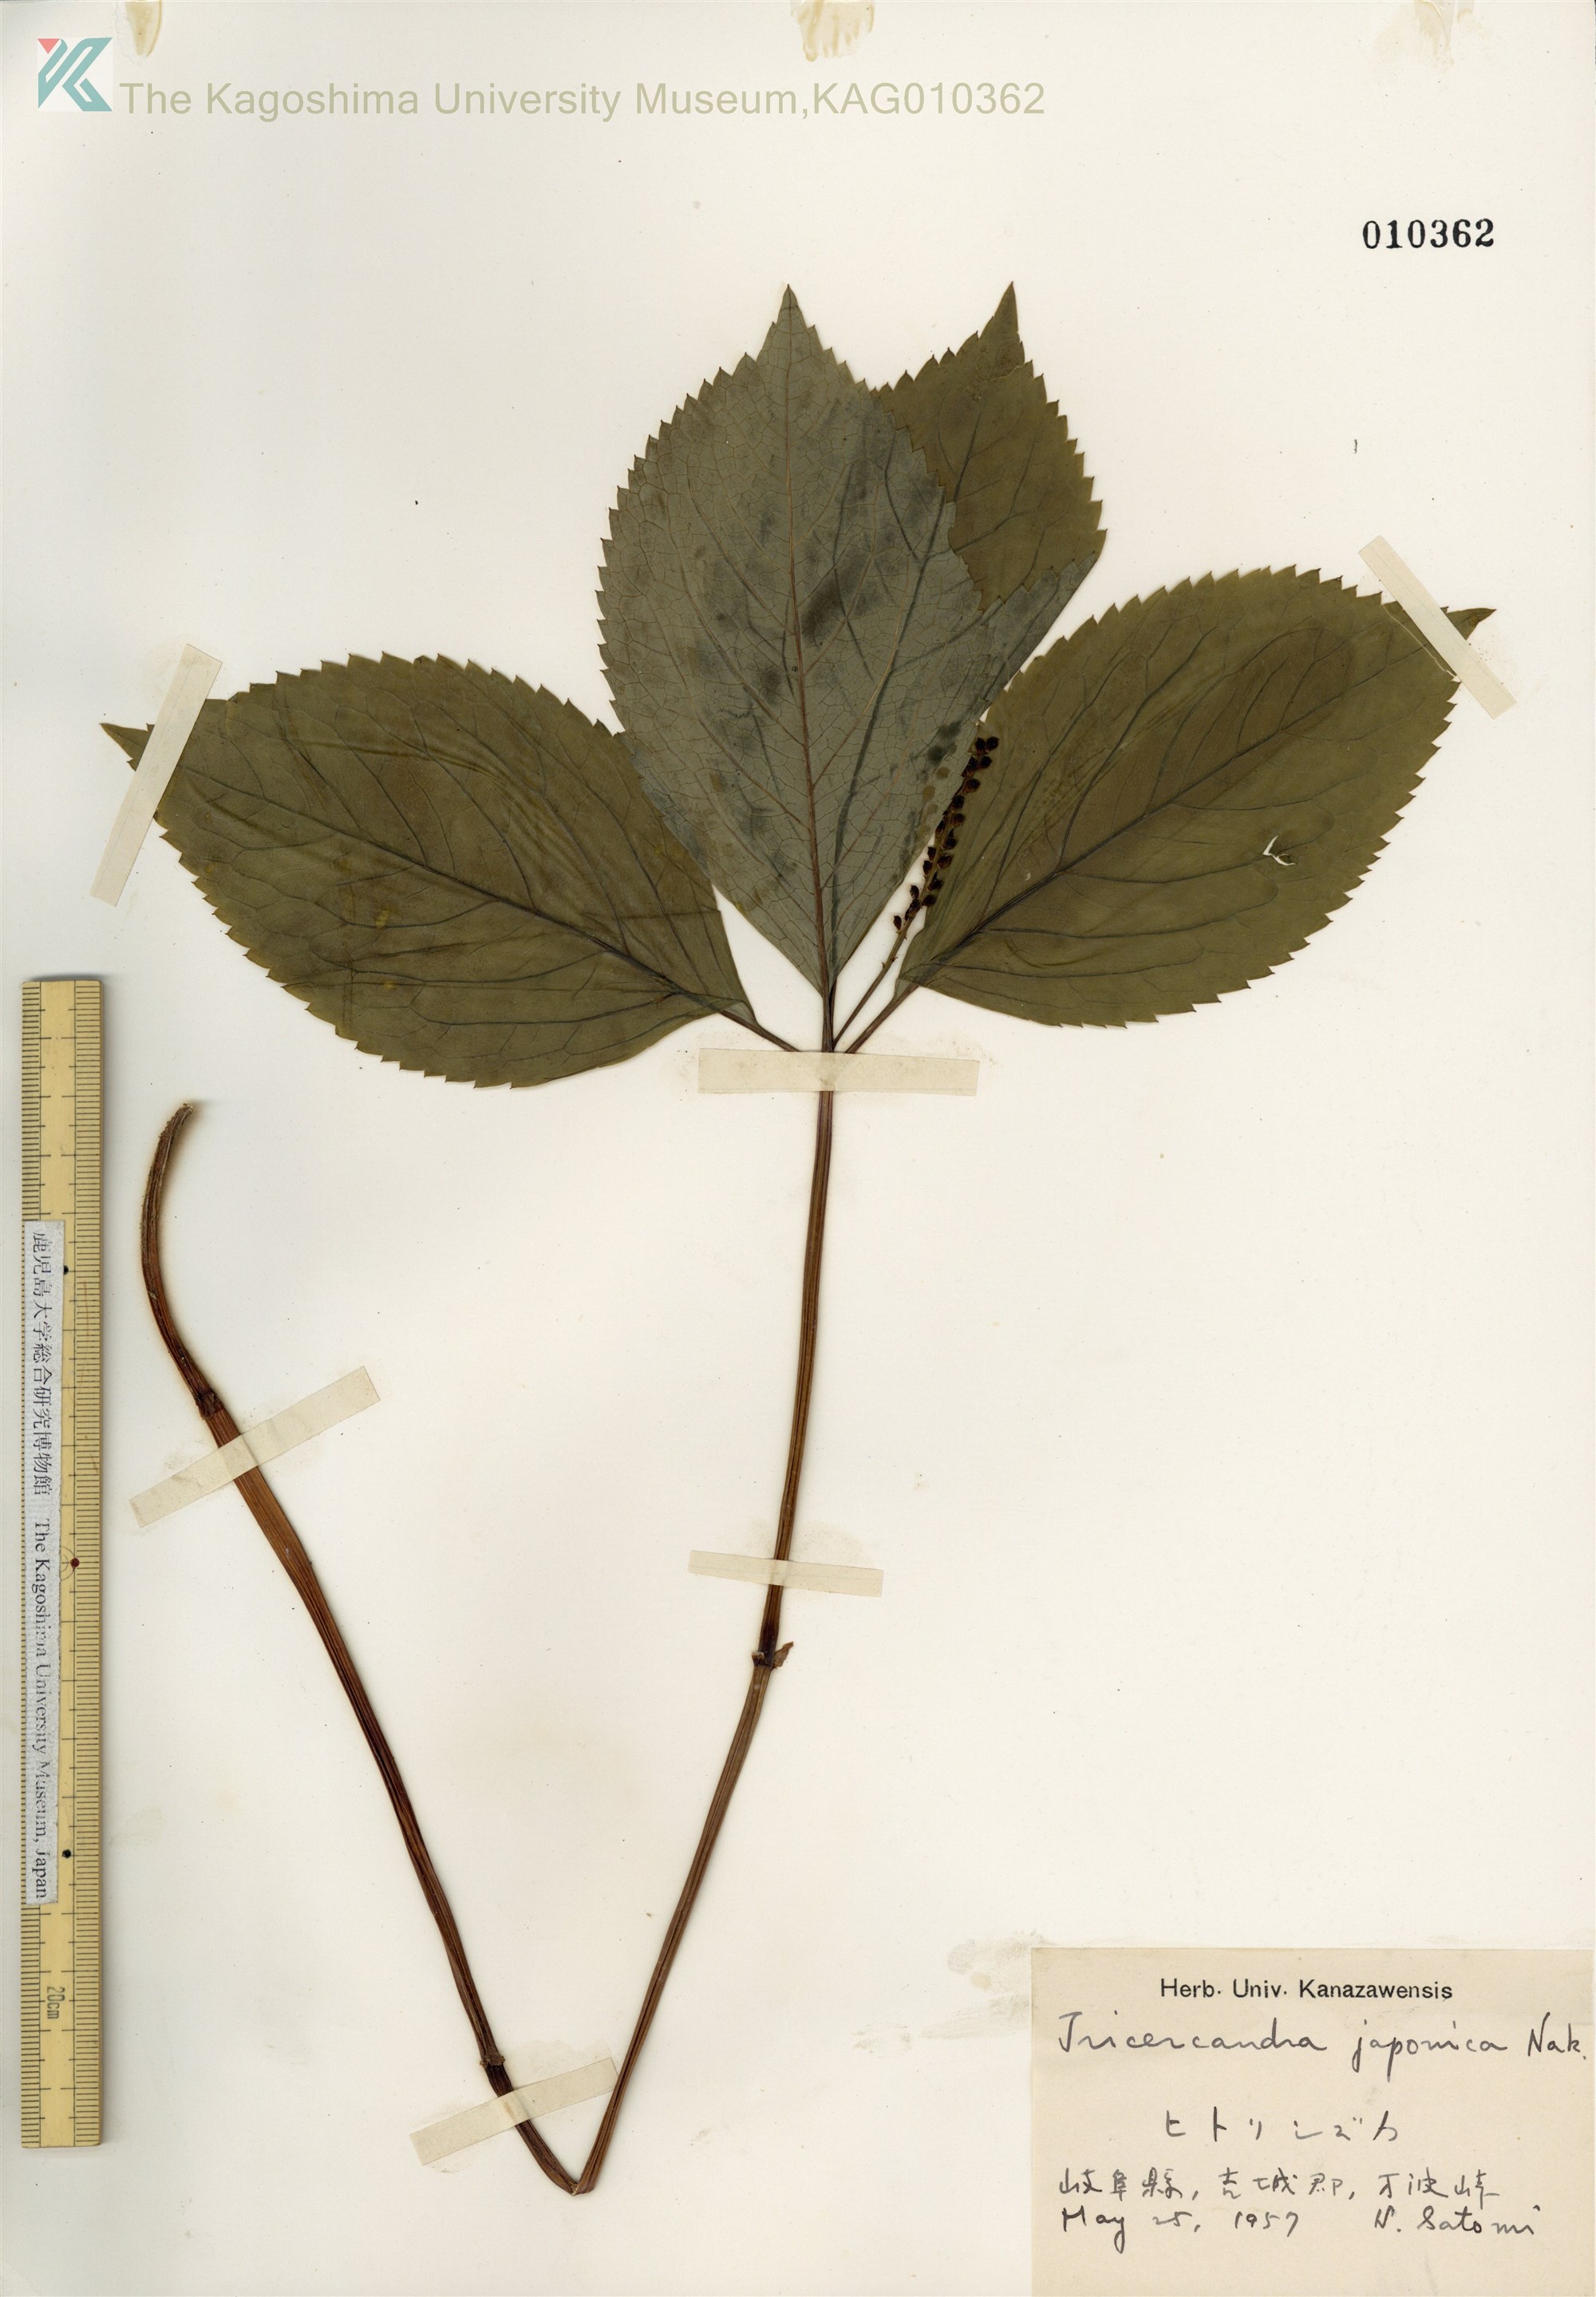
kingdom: Plantae
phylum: Tracheophyta
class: Magnoliopsida
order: Chloranthales
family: Chloranthaceae
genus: Chloranthus
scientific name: Chloranthus japonicus
